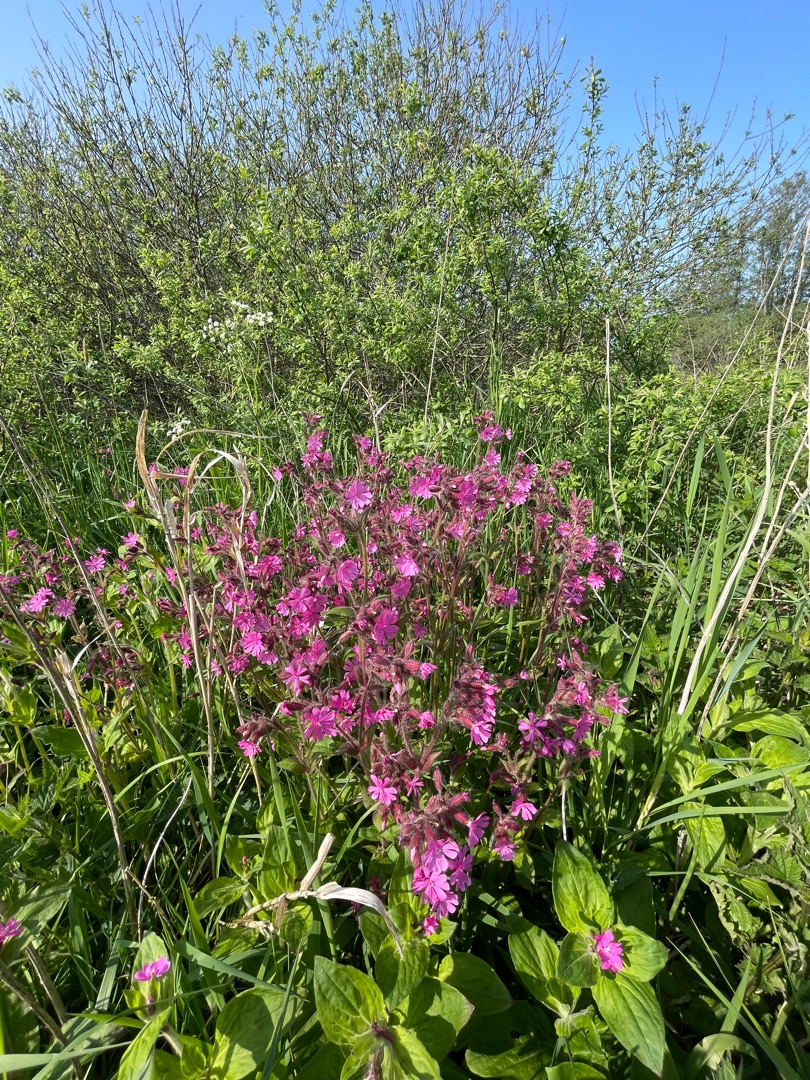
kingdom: Plantae
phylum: Tracheophyta
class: Magnoliopsida
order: Caryophyllales
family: Caryophyllaceae
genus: Silene
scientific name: Silene dioica
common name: Dagpragtstjerne
